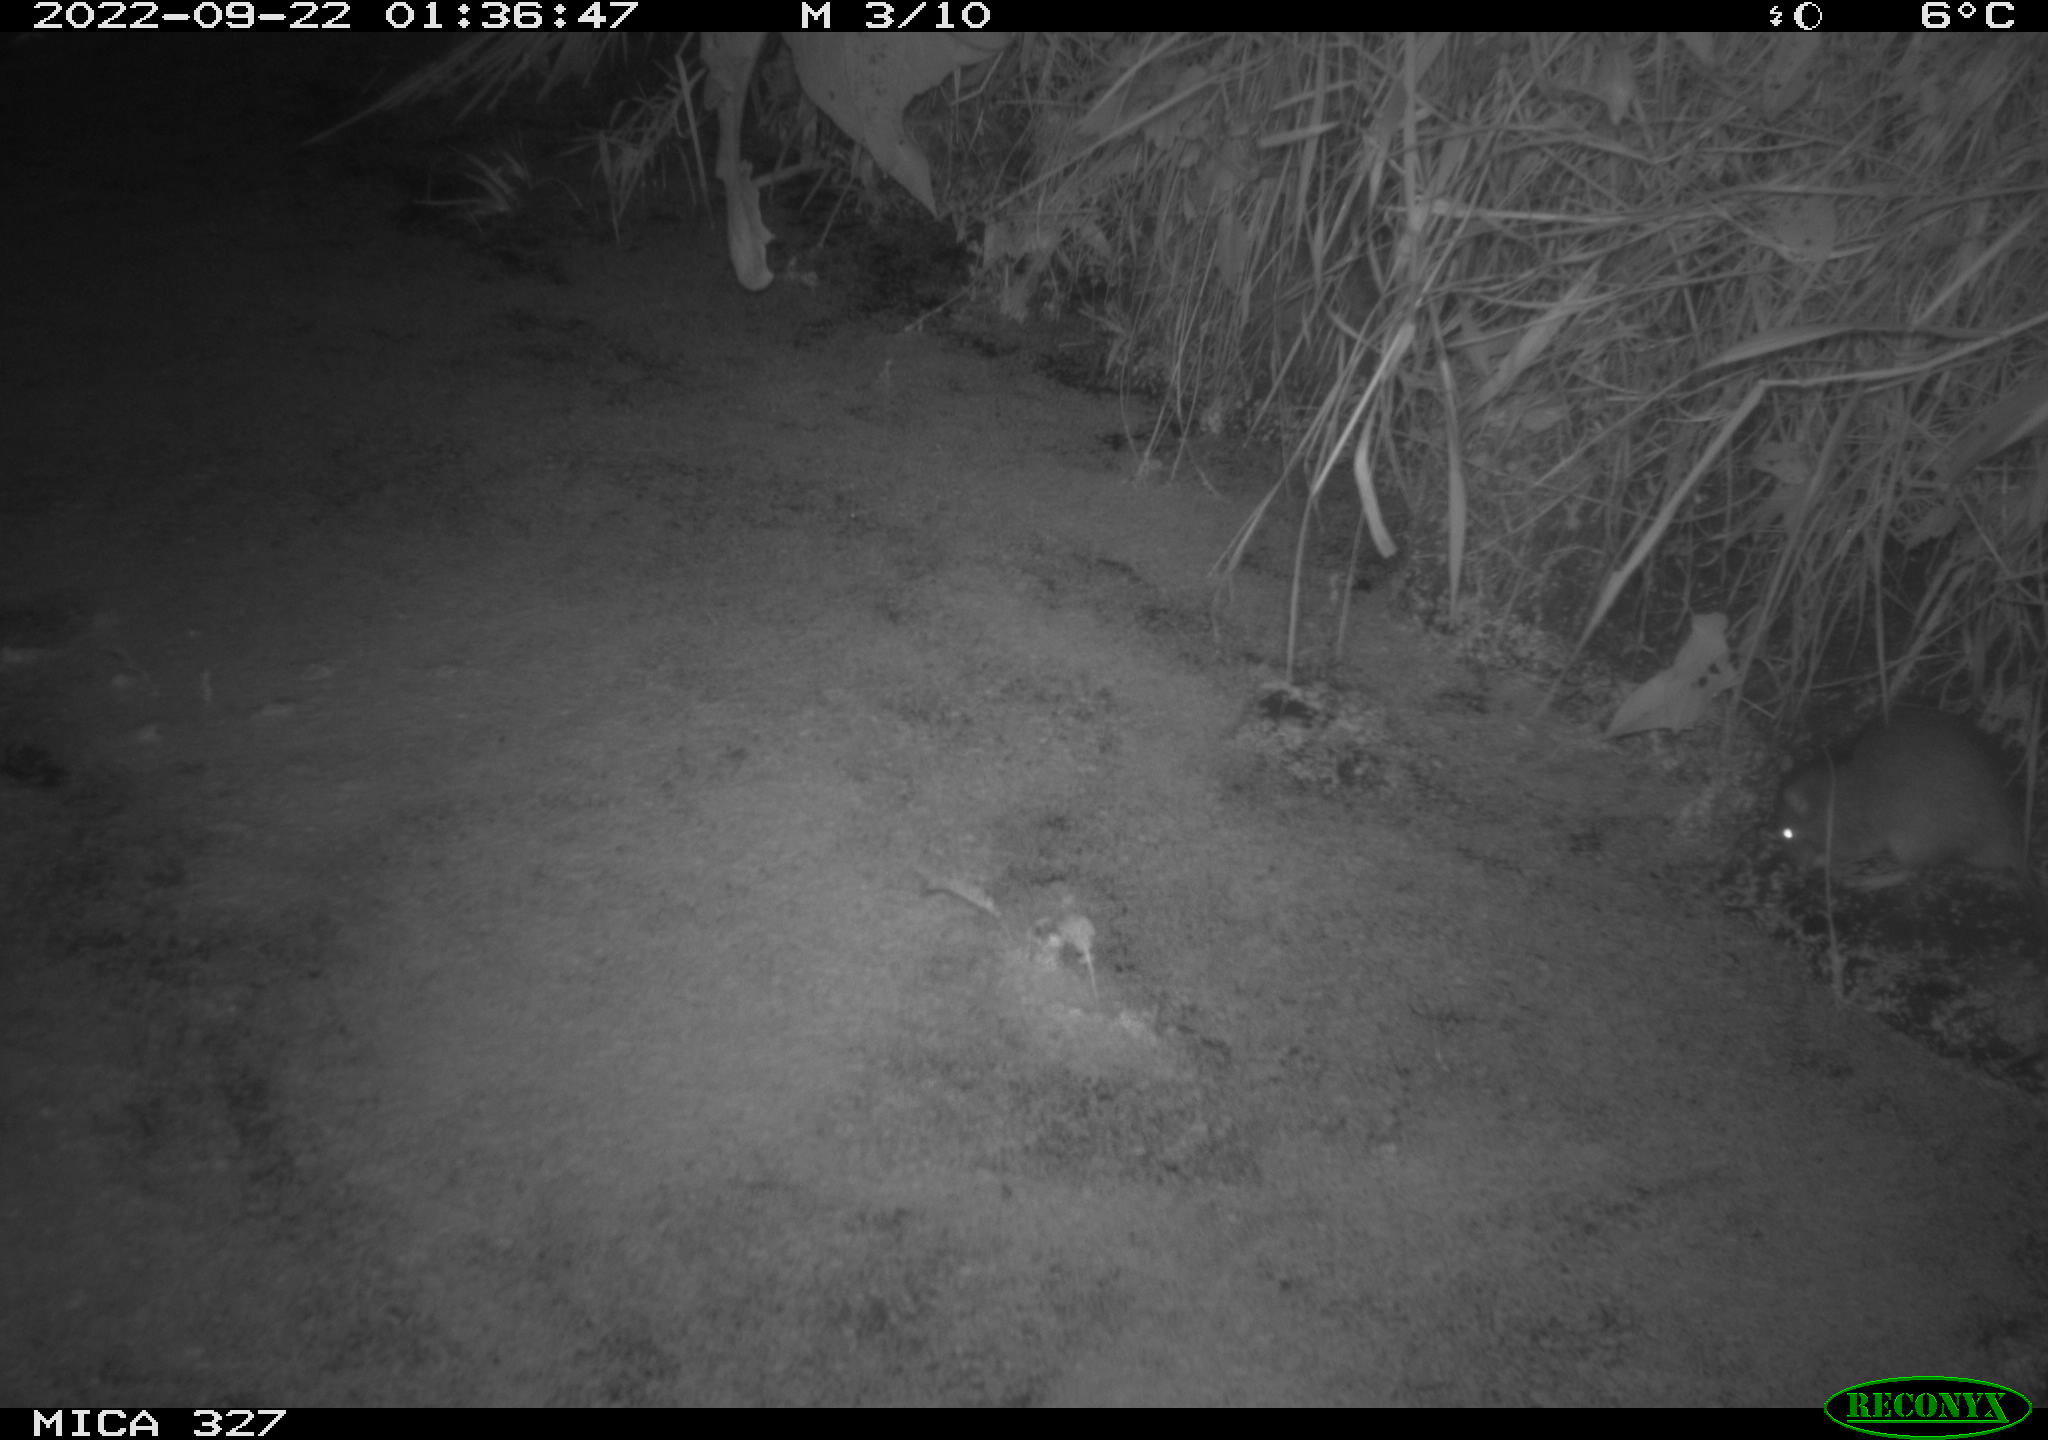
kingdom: Animalia
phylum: Chordata
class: Mammalia
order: Rodentia
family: Muridae
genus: Rattus
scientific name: Rattus norvegicus
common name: Brown rat
